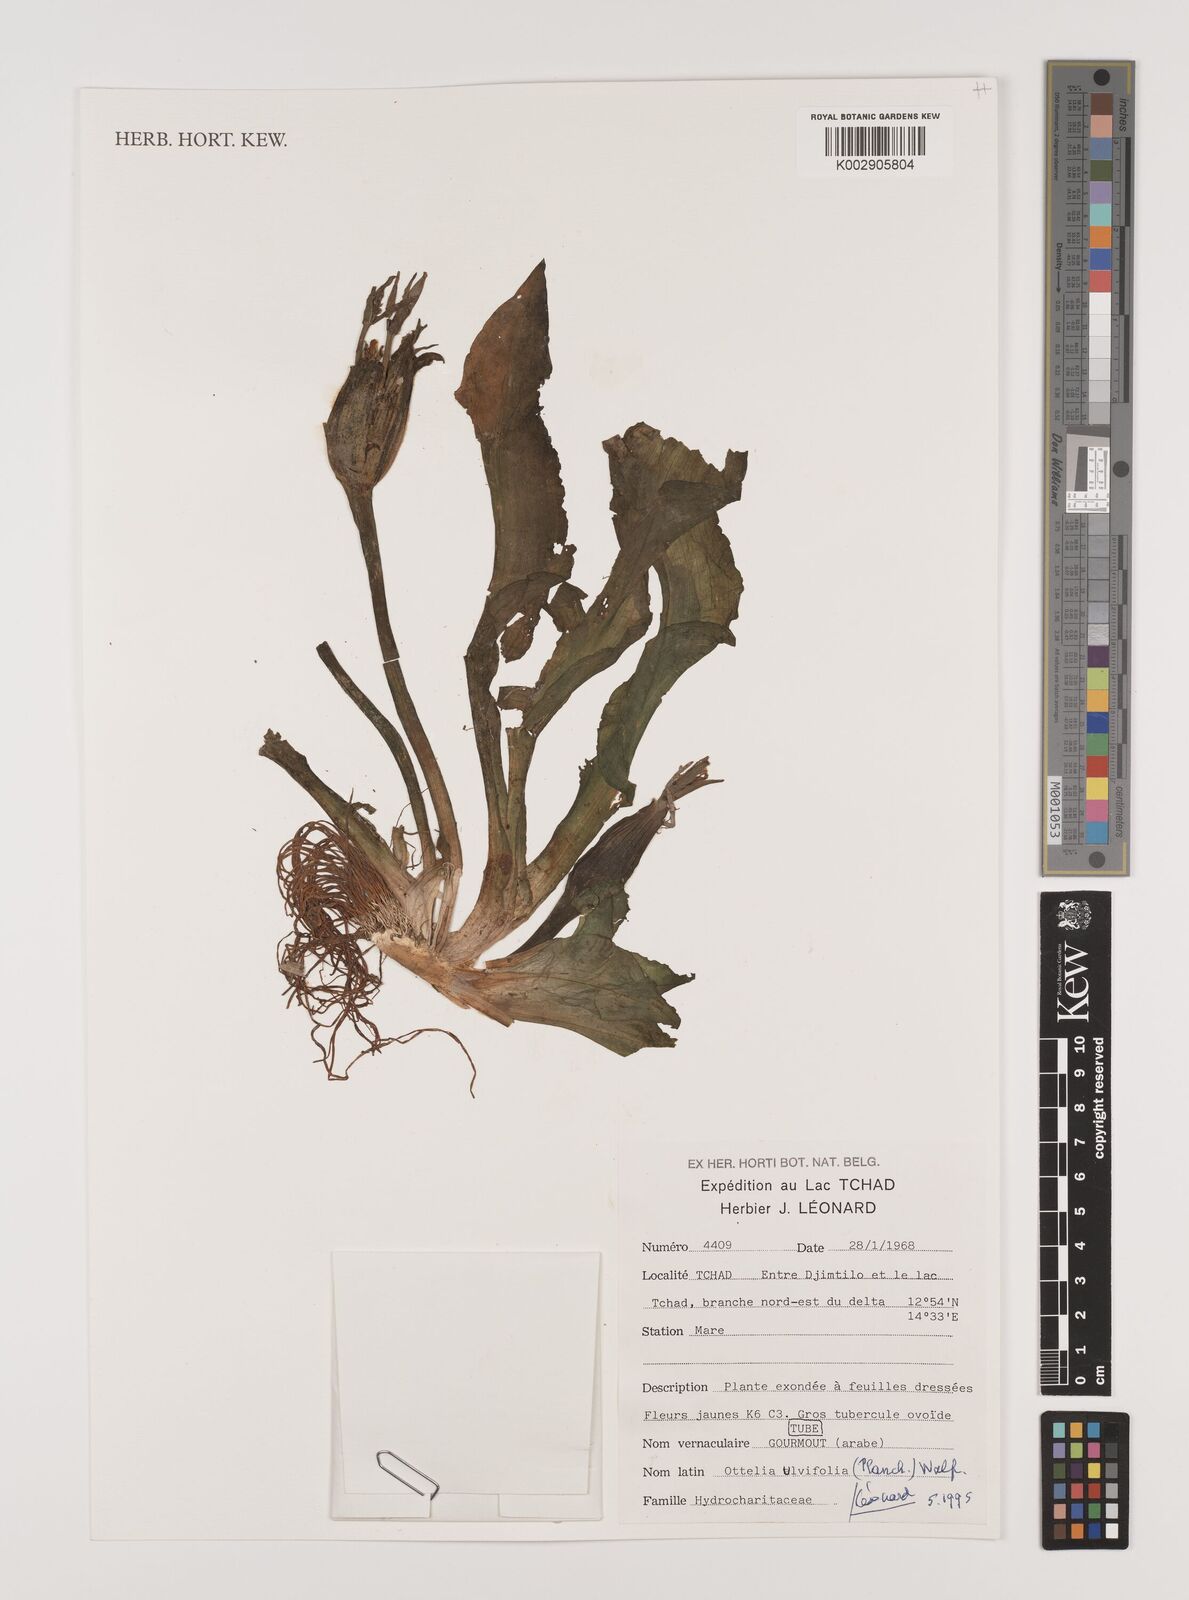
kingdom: Plantae
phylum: Tracheophyta
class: Liliopsida
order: Alismatales
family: Hydrocharitaceae
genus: Ottelia
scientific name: Ottelia ulvifolia
